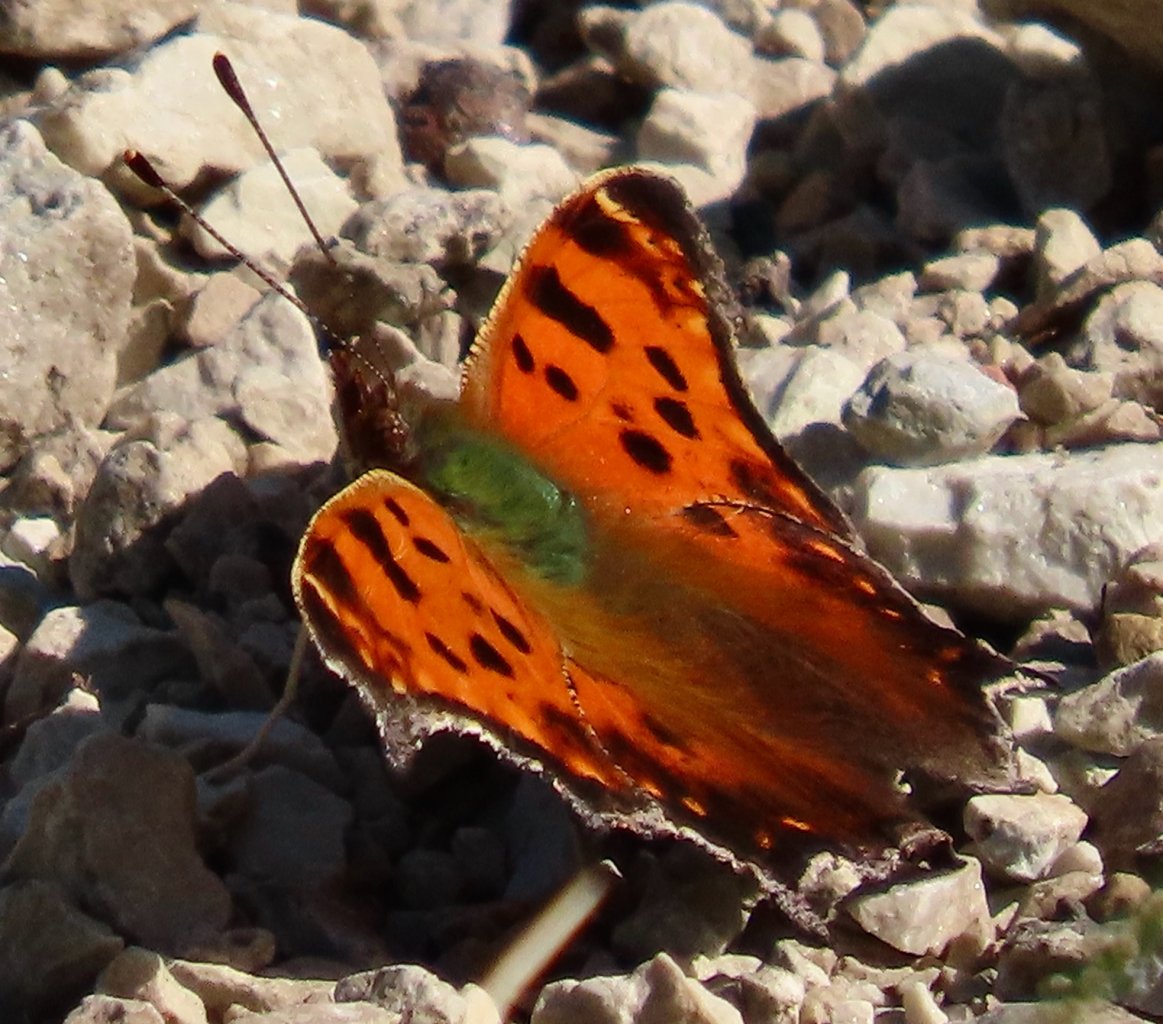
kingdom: Animalia
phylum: Arthropoda
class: Insecta
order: Lepidoptera
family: Nymphalidae
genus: Polygonia
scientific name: Polygonia comma
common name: Eastern Comma
